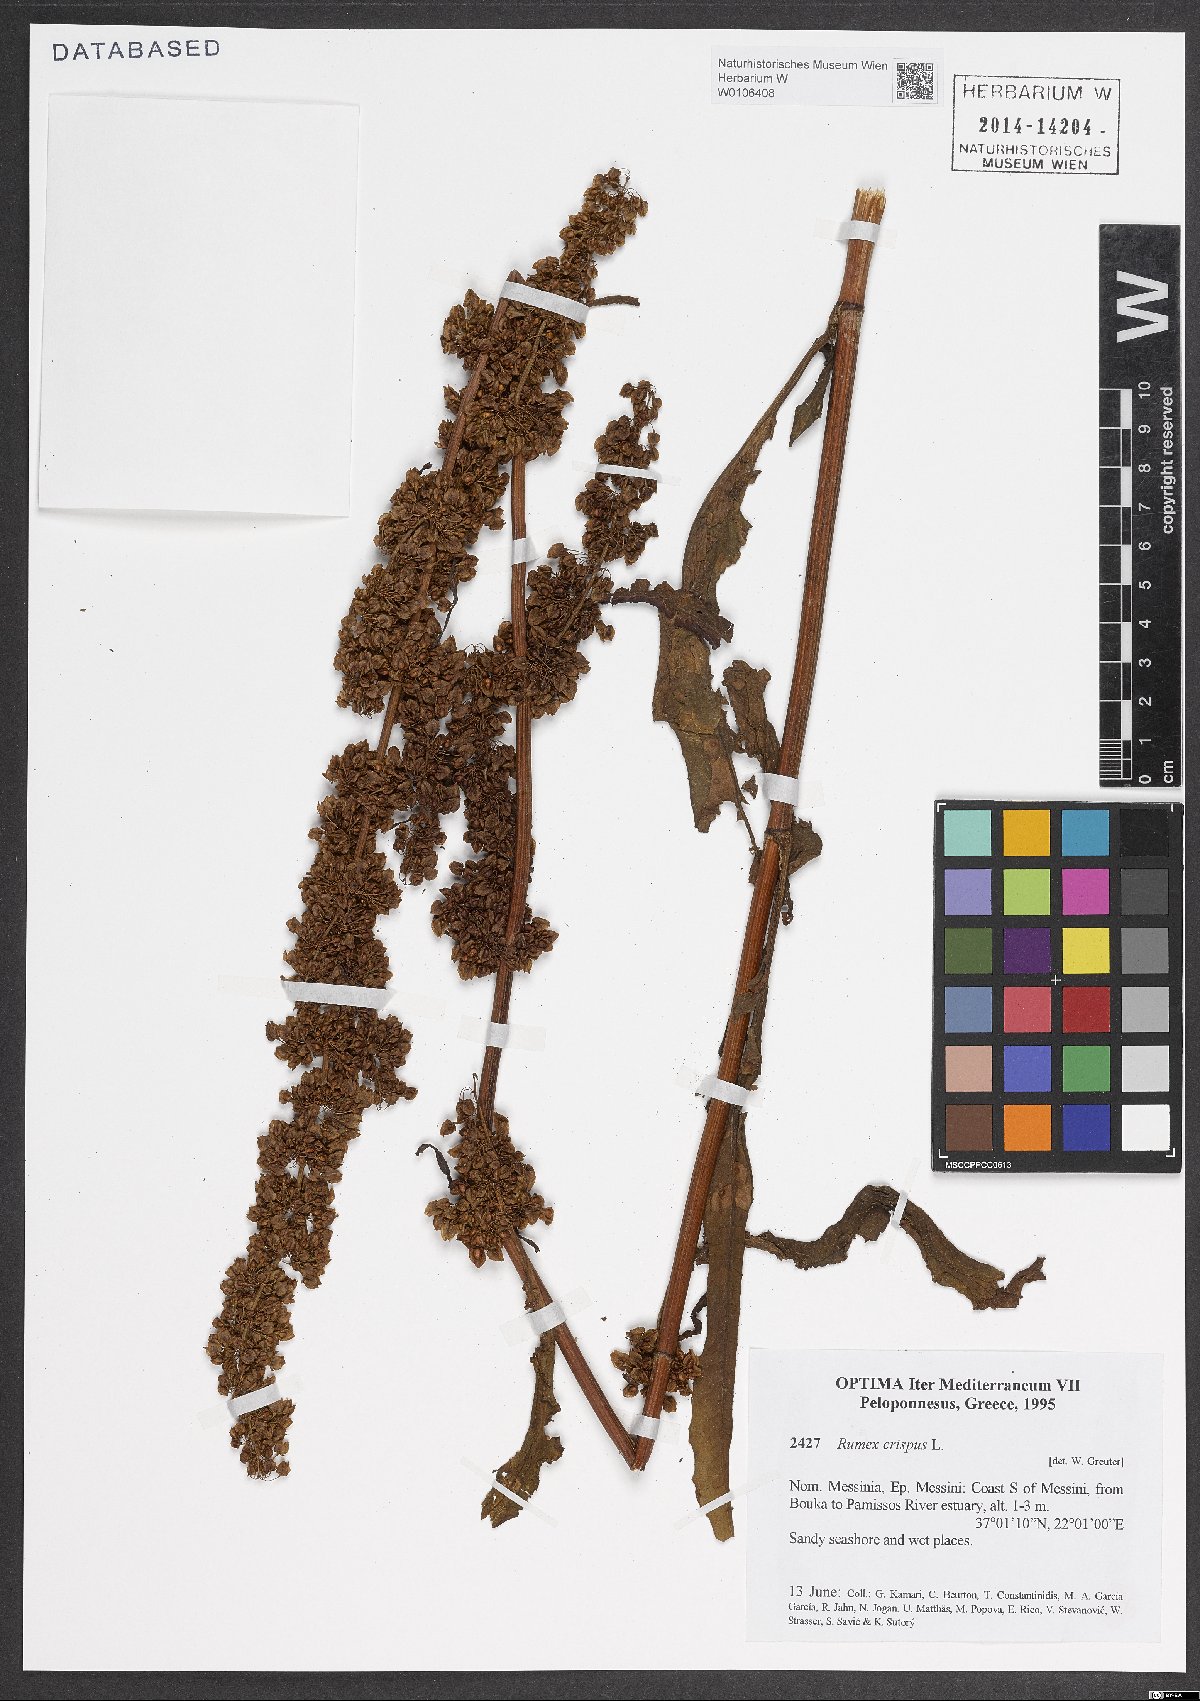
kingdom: Plantae
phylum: Tracheophyta
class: Magnoliopsida
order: Caryophyllales
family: Polygonaceae
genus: Rumex
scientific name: Rumex crispus
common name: Curled dock
